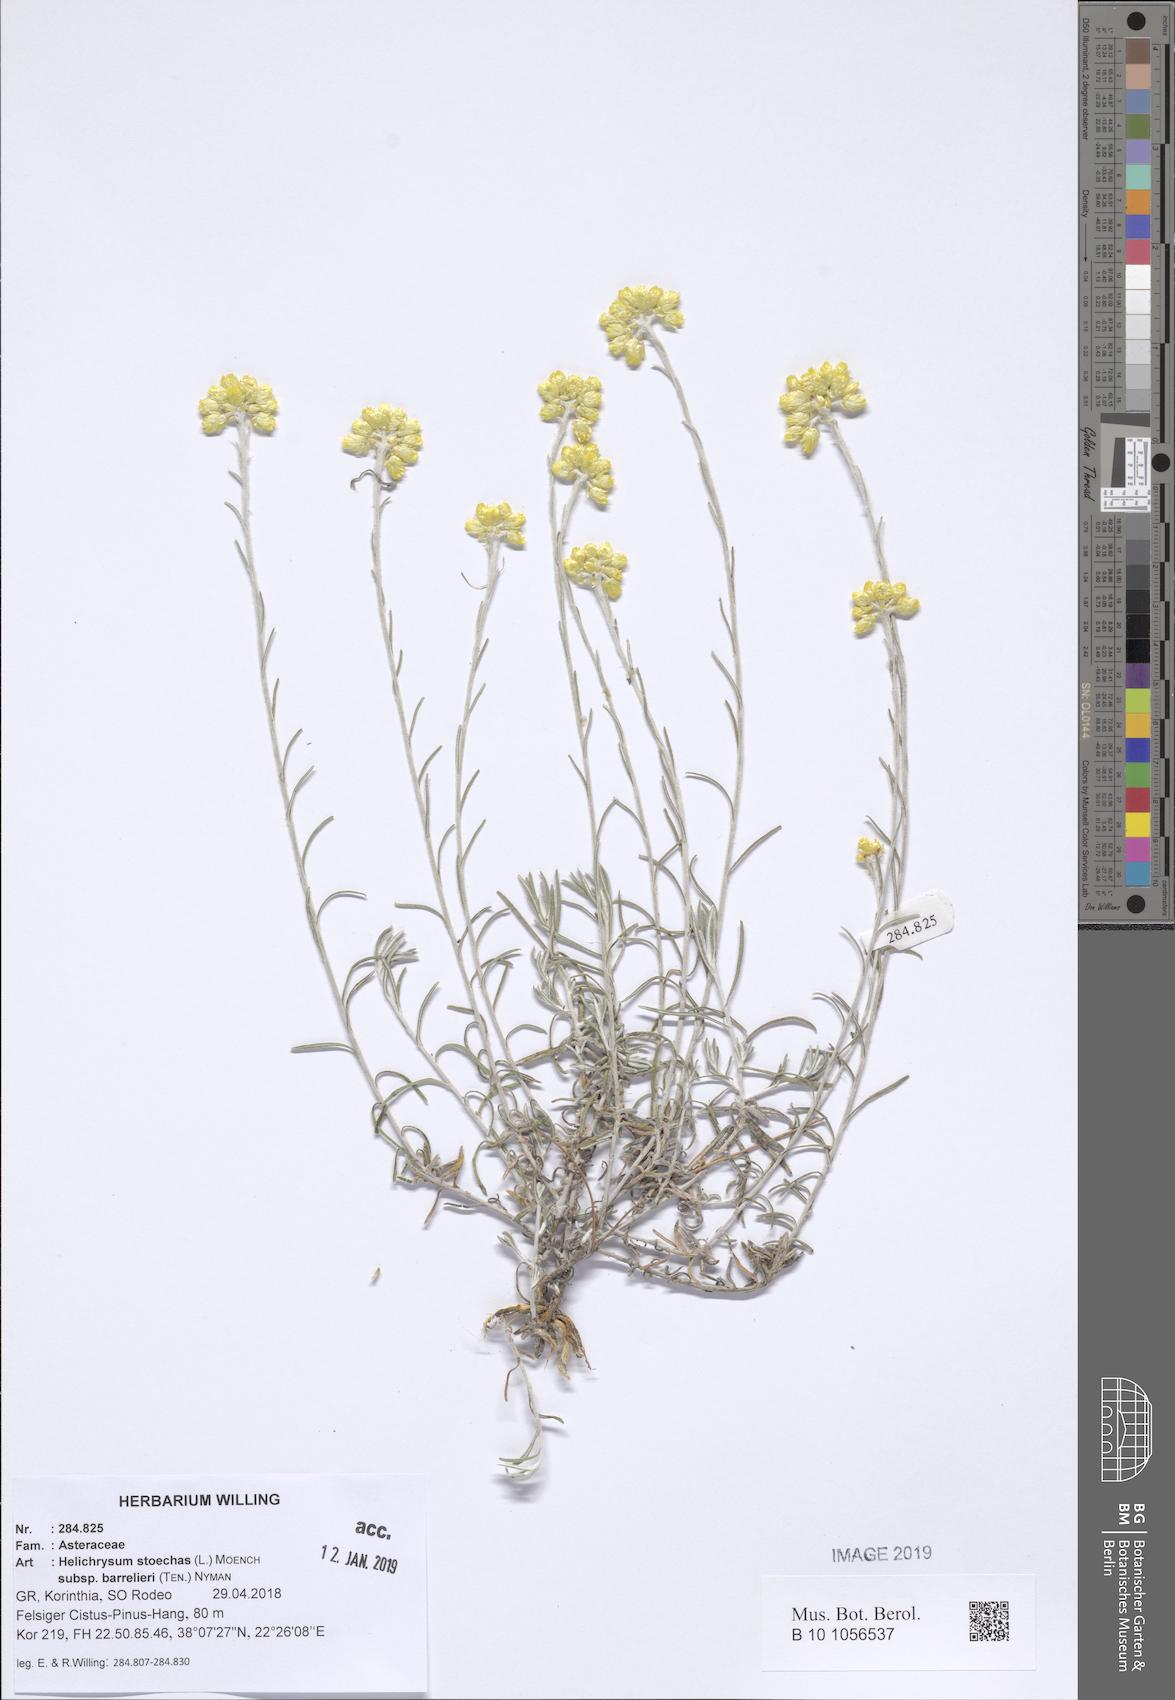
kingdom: Plantae
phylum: Tracheophyta
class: Magnoliopsida
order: Asterales
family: Asteraceae
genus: Helichrysum
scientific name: Helichrysum stoechas
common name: Goldilocks
